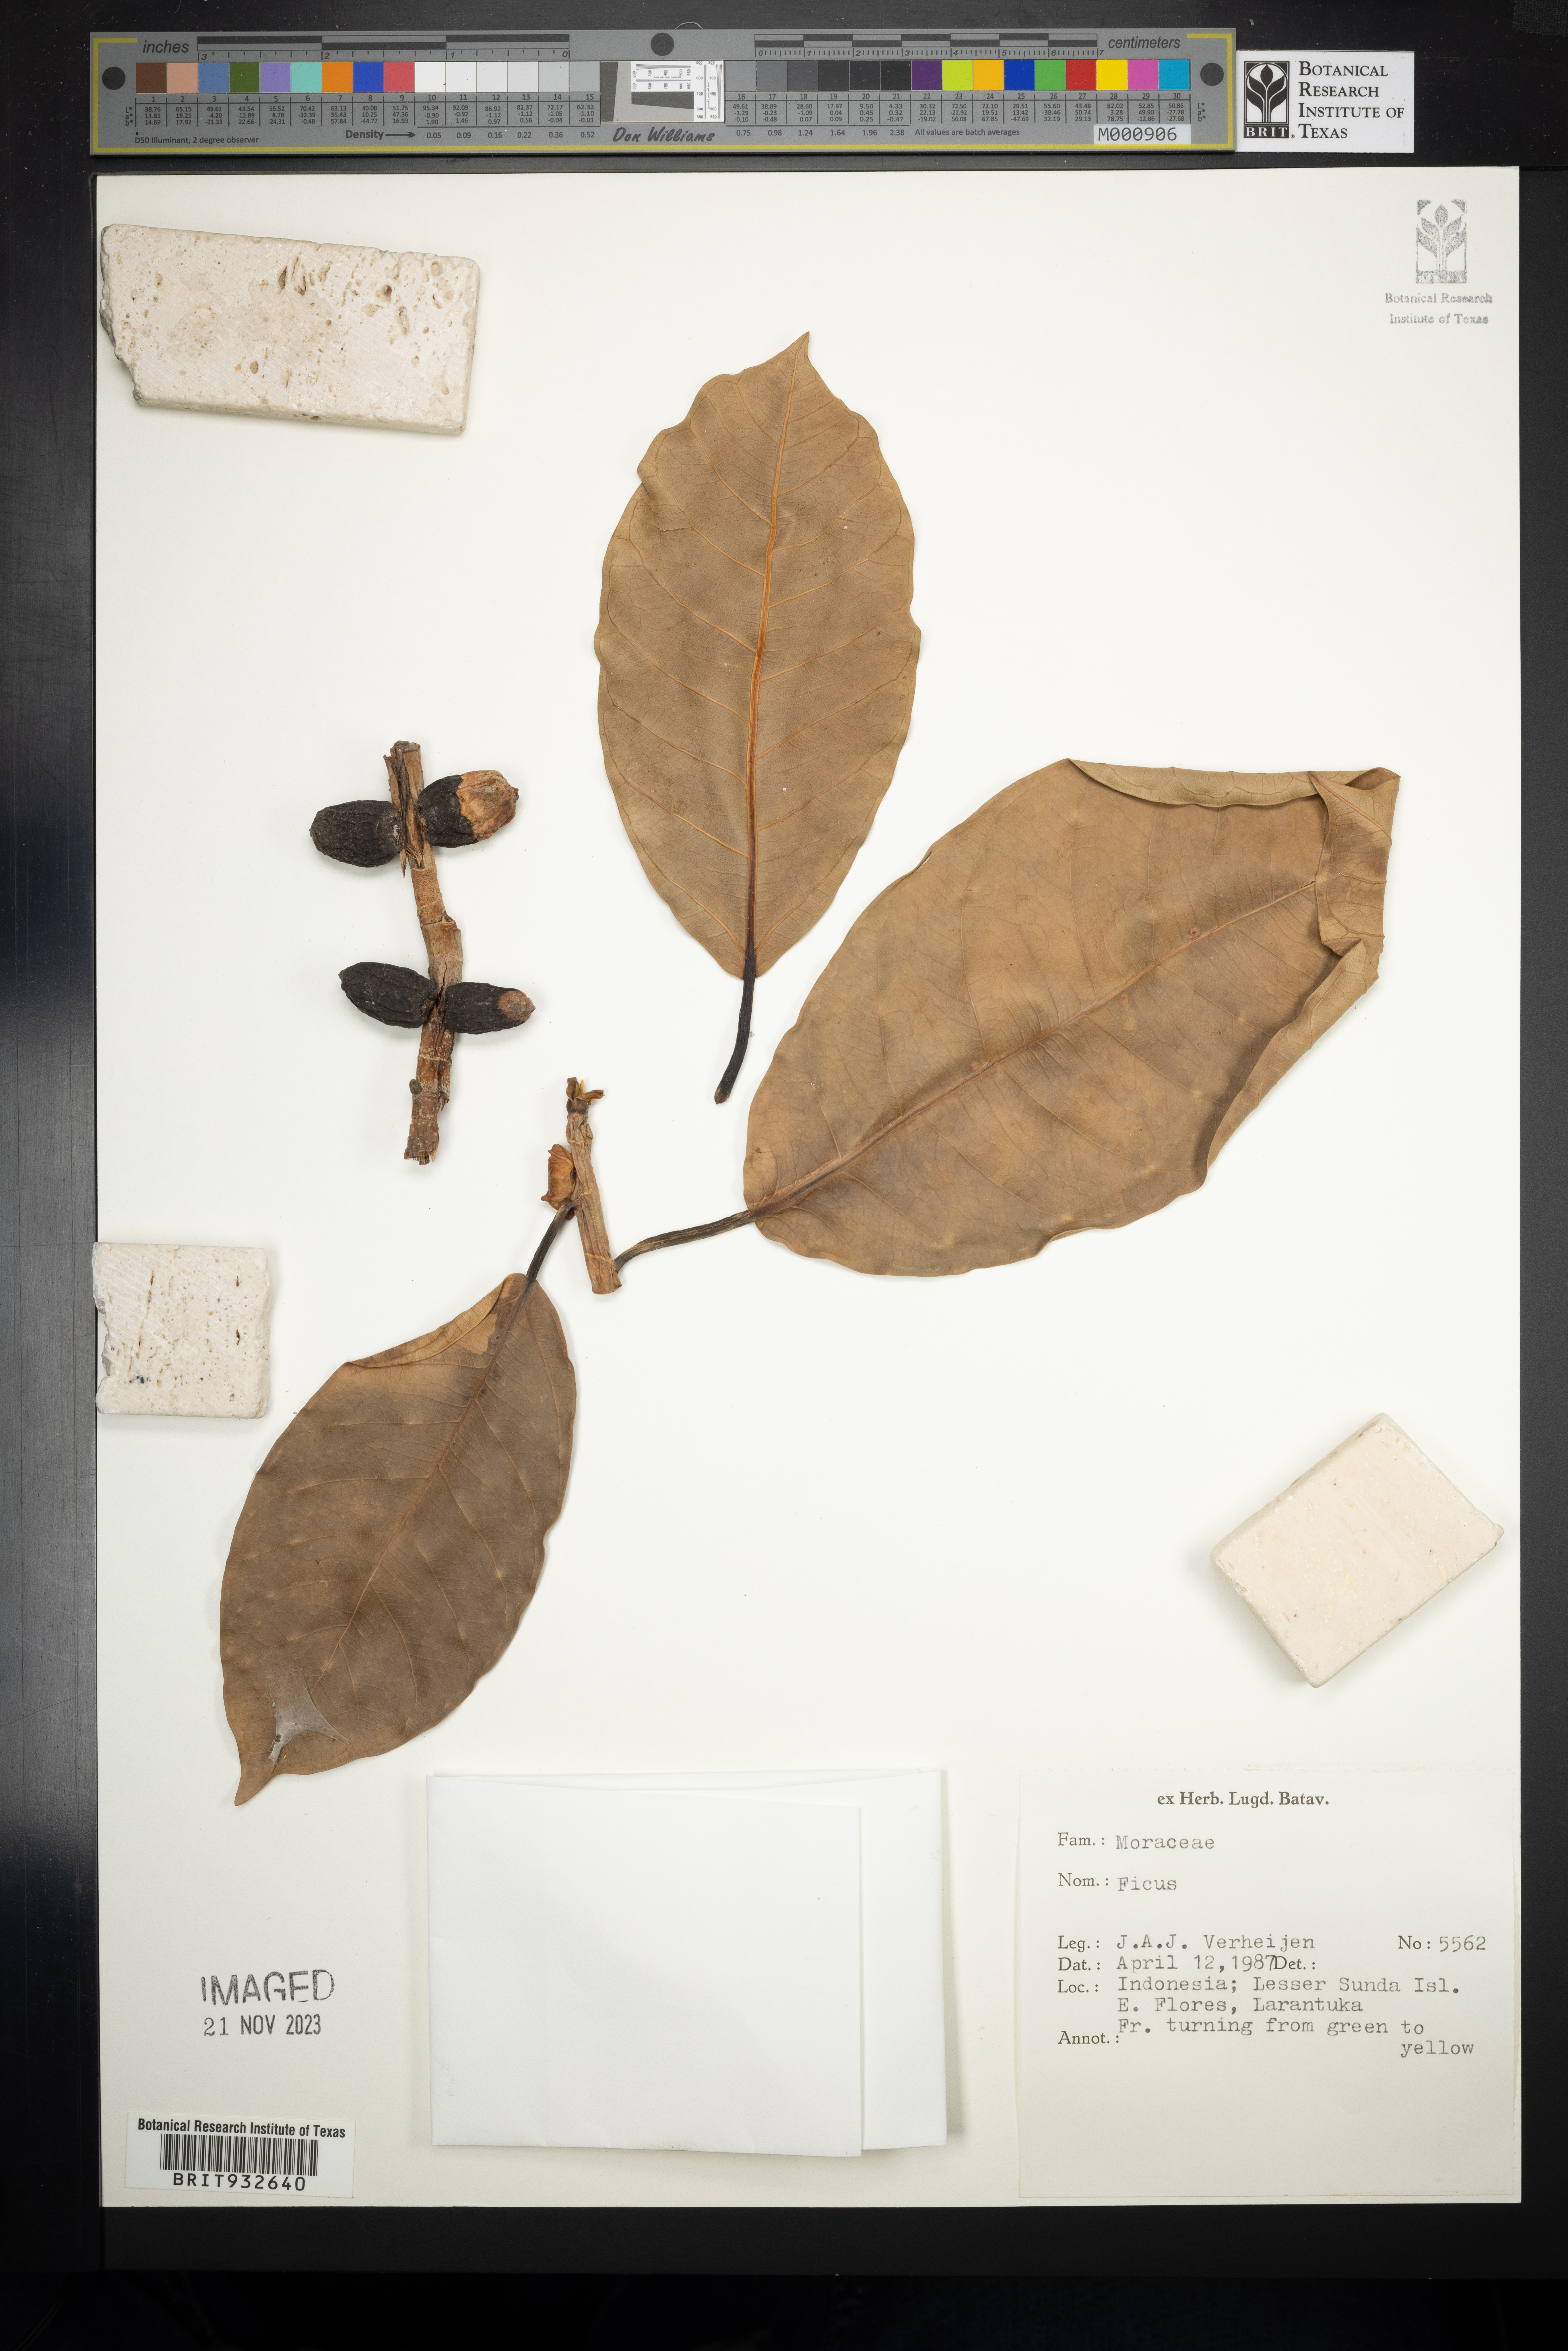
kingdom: Plantae
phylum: Tracheophyta
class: Magnoliopsida
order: Rosales
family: Moraceae
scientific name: Moraceae
